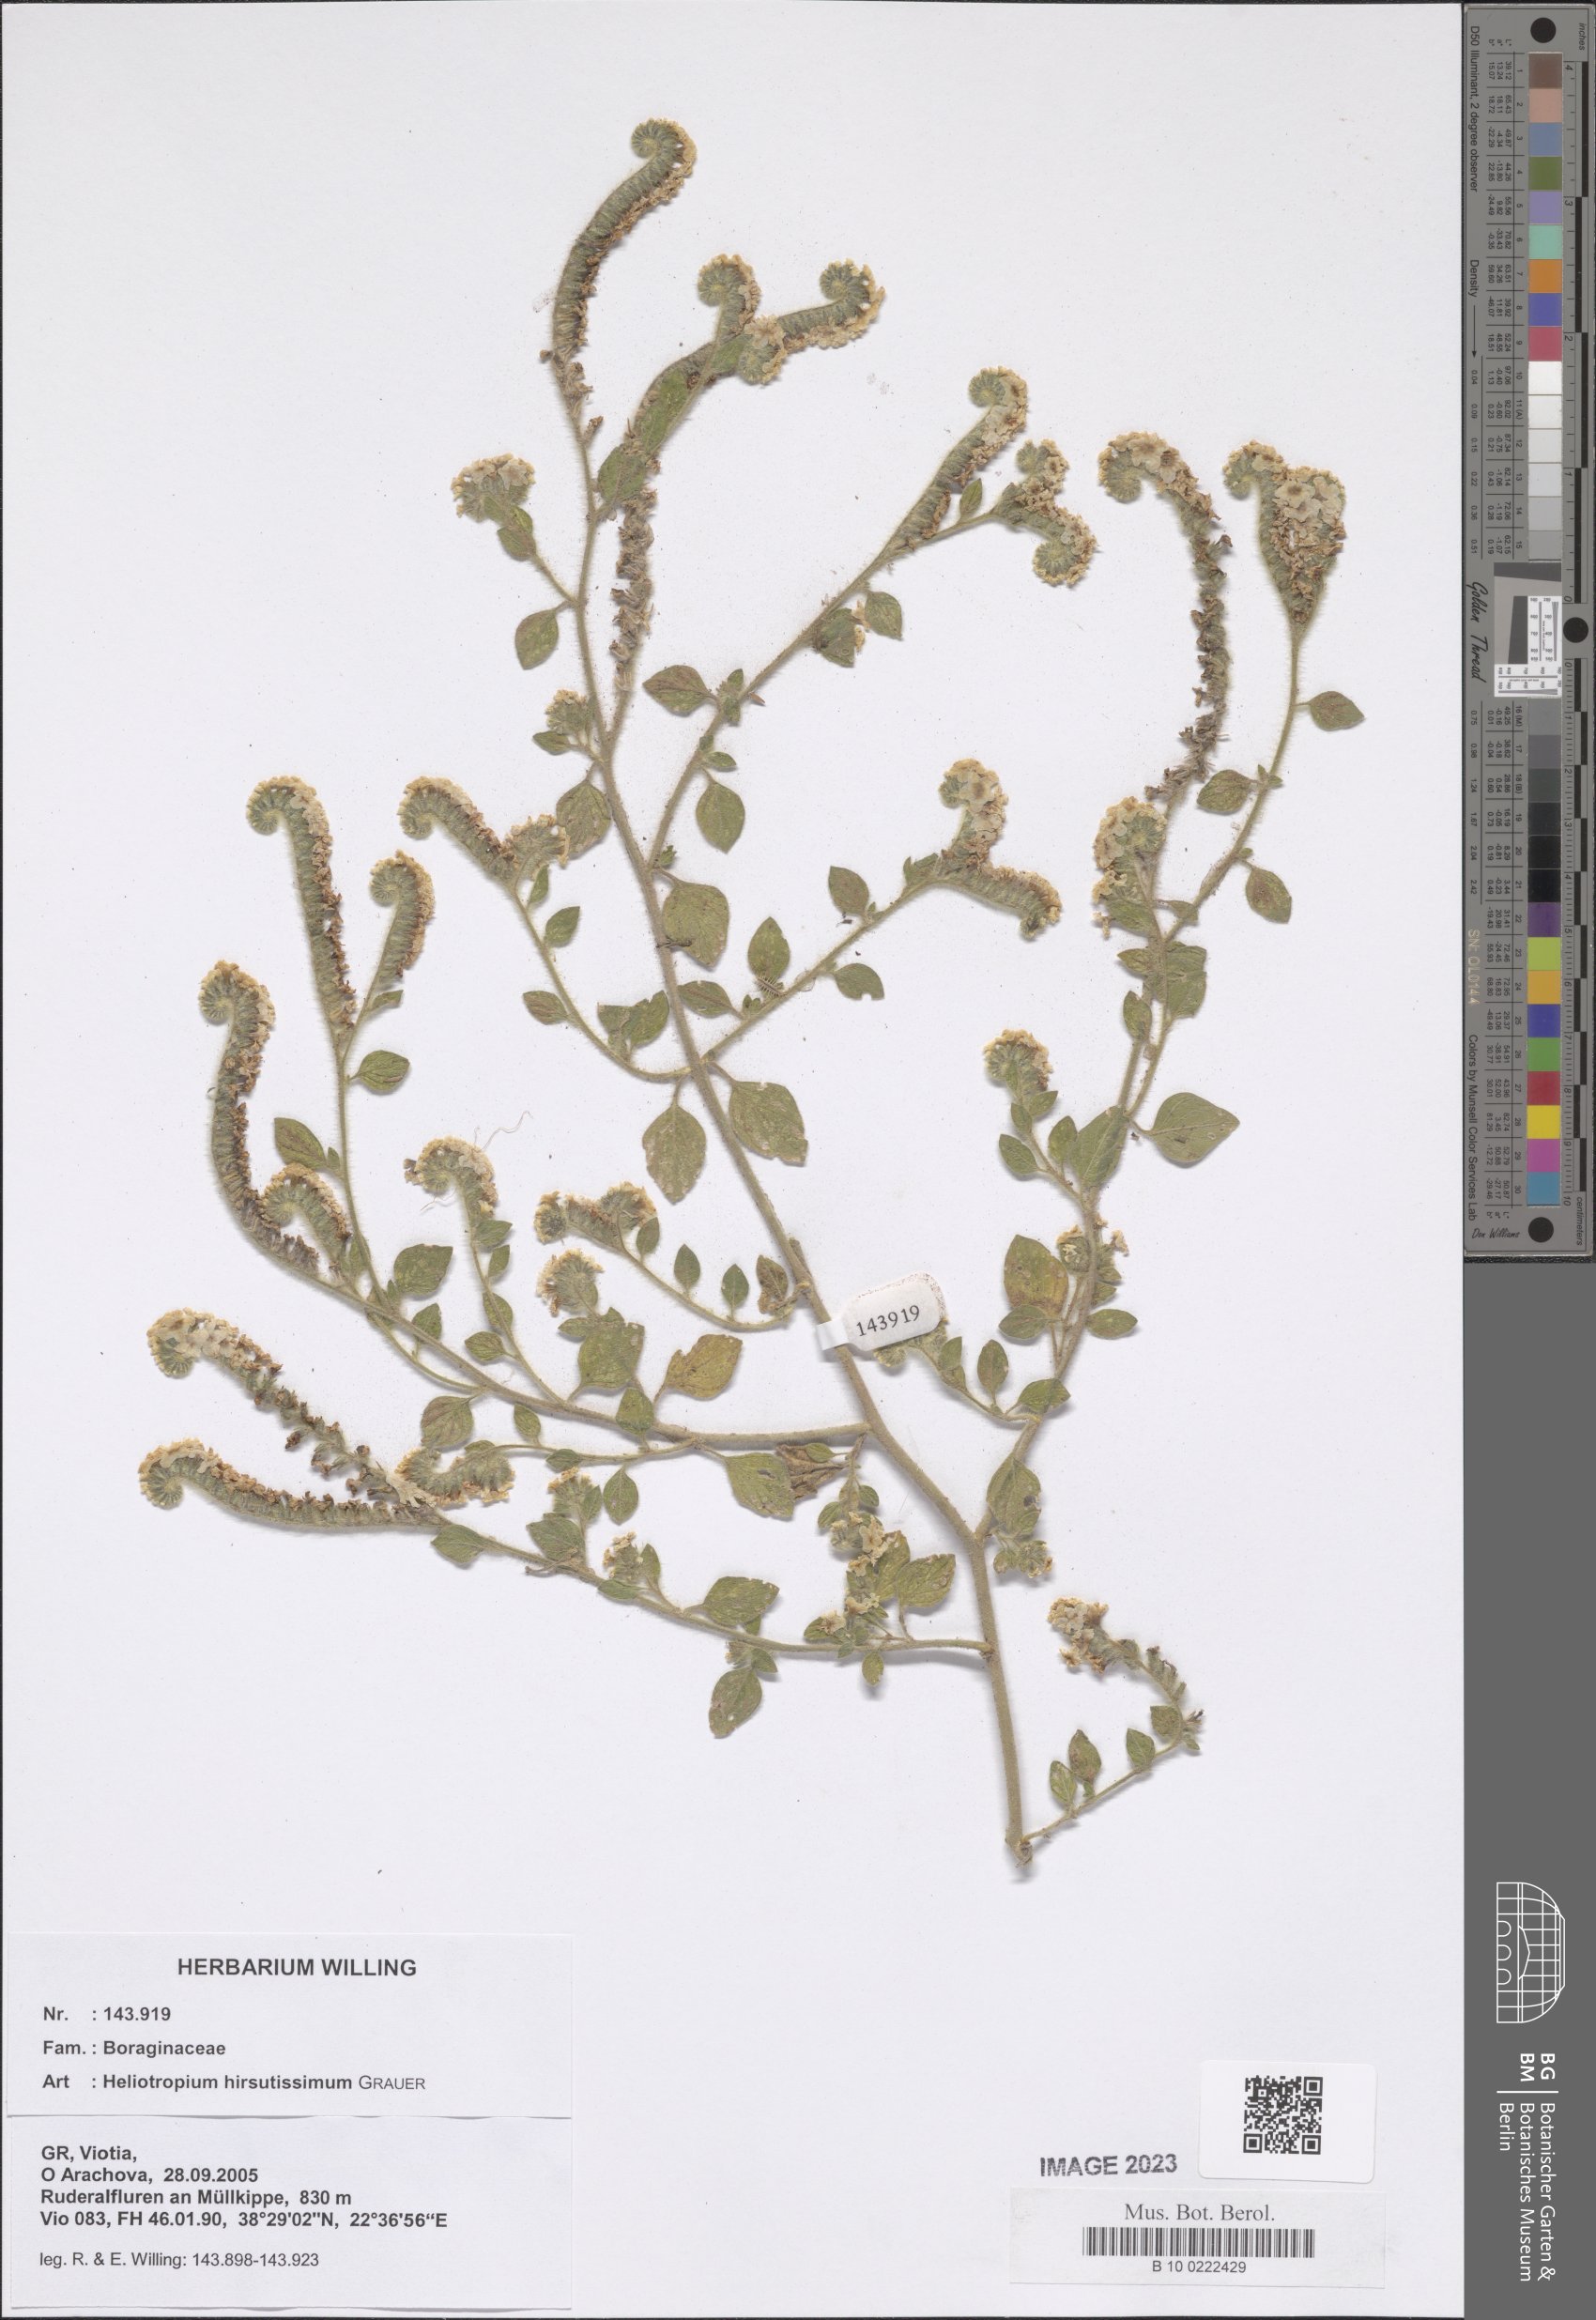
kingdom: Plantae
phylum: Tracheophyta
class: Magnoliopsida
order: Boraginales
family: Heliotropiaceae
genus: Heliotropium
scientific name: Heliotropium hirsutissimum
